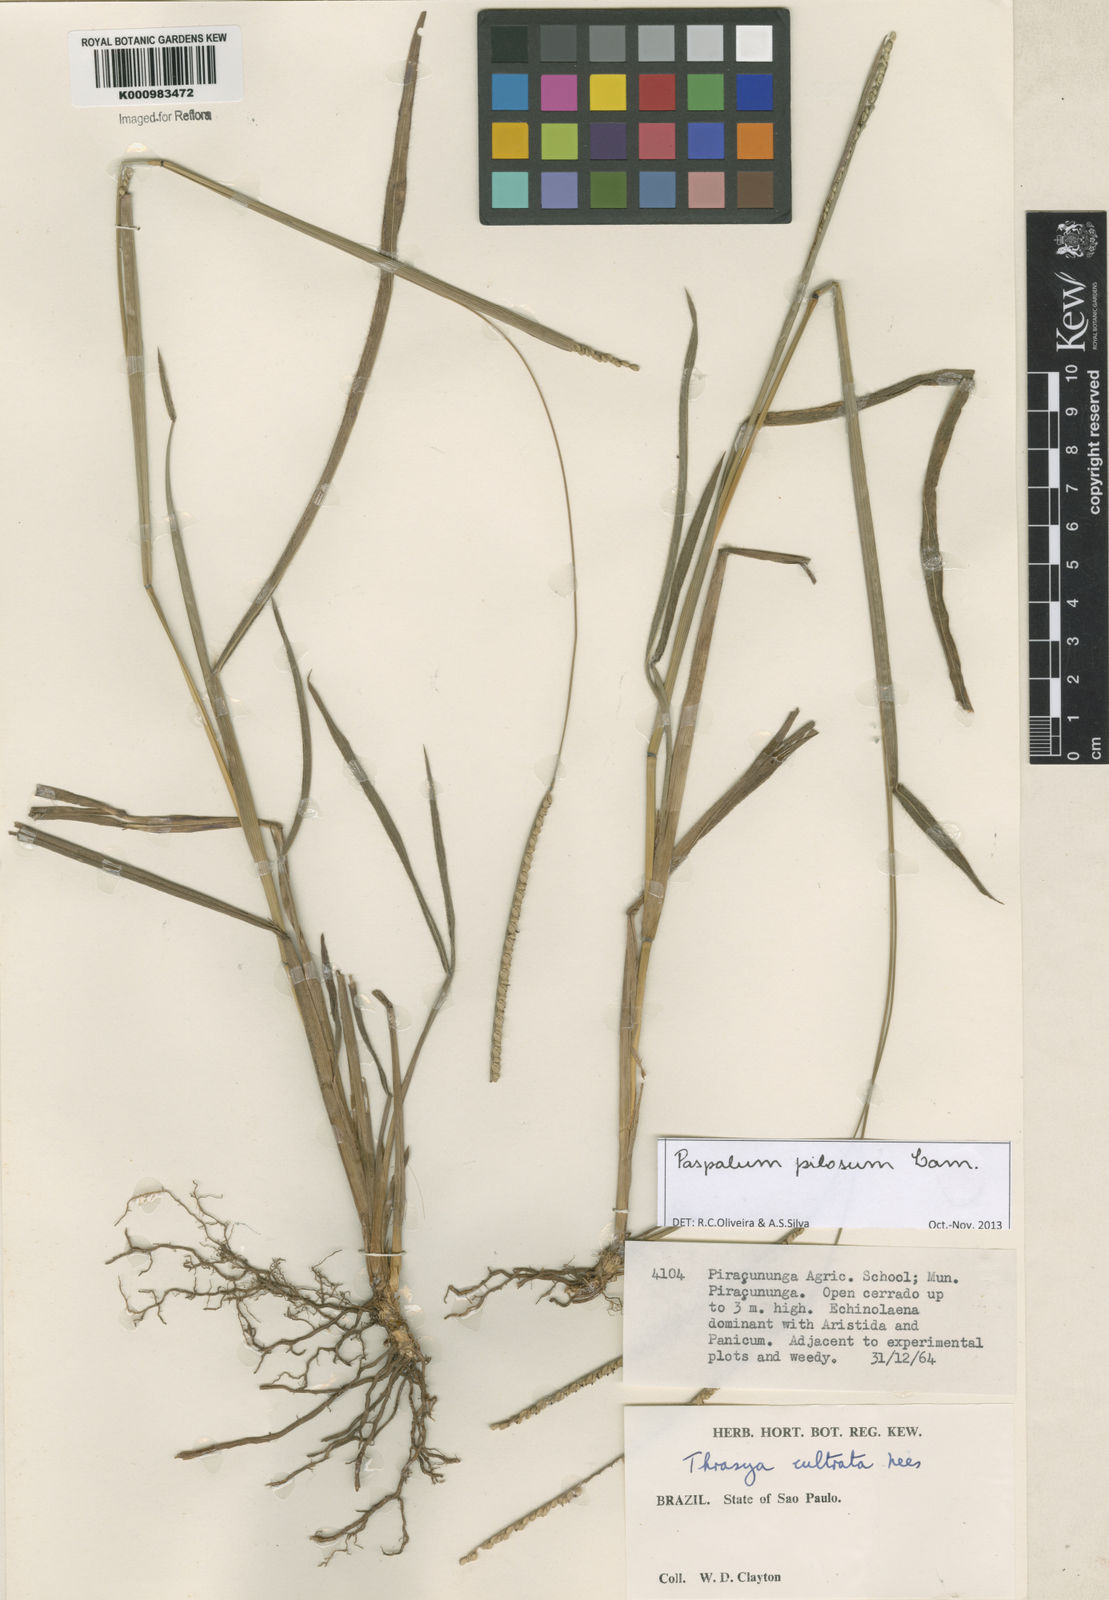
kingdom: Plantae
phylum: Tracheophyta
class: Magnoliopsida
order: Asterales
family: Asteraceae
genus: Vernonanthura
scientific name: Vernonanthura chamaedrys
